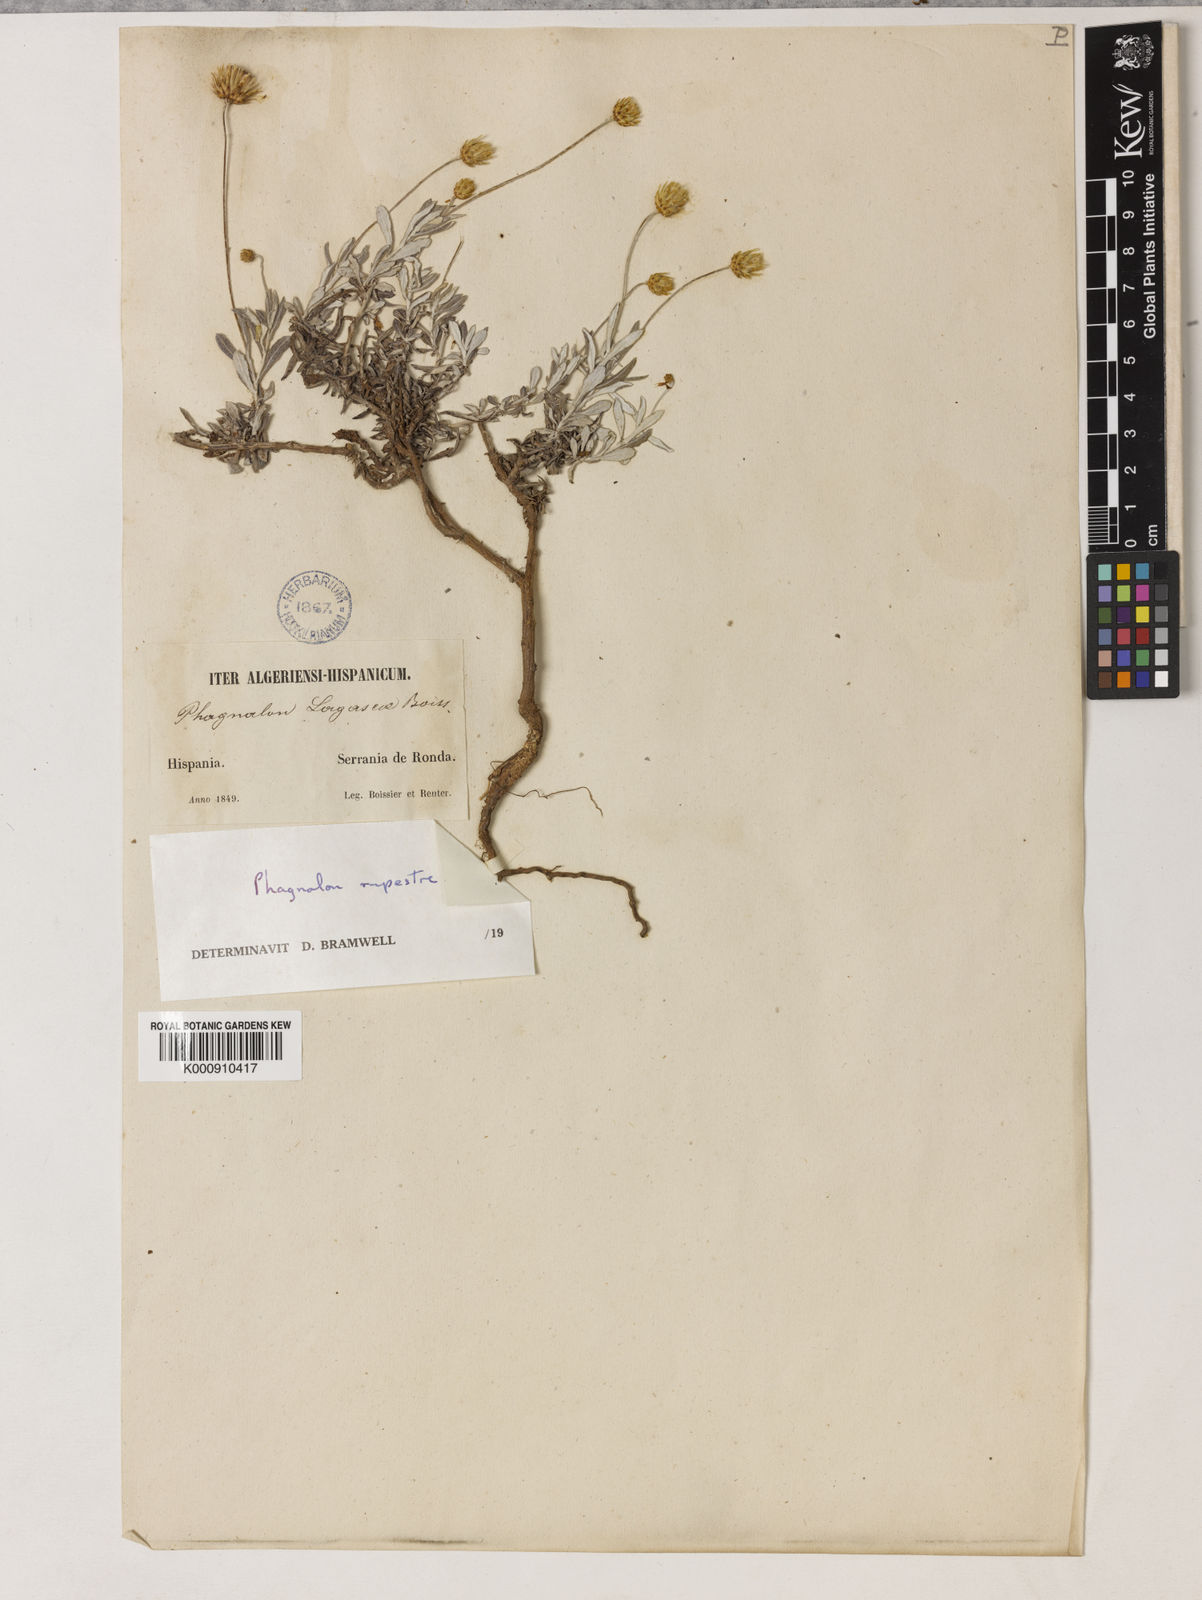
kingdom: Plantae
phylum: Tracheophyta
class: Magnoliopsida
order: Asterales
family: Asteraceae
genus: Phagnalon
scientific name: Phagnalon rupestre
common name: Rock phagnalon
